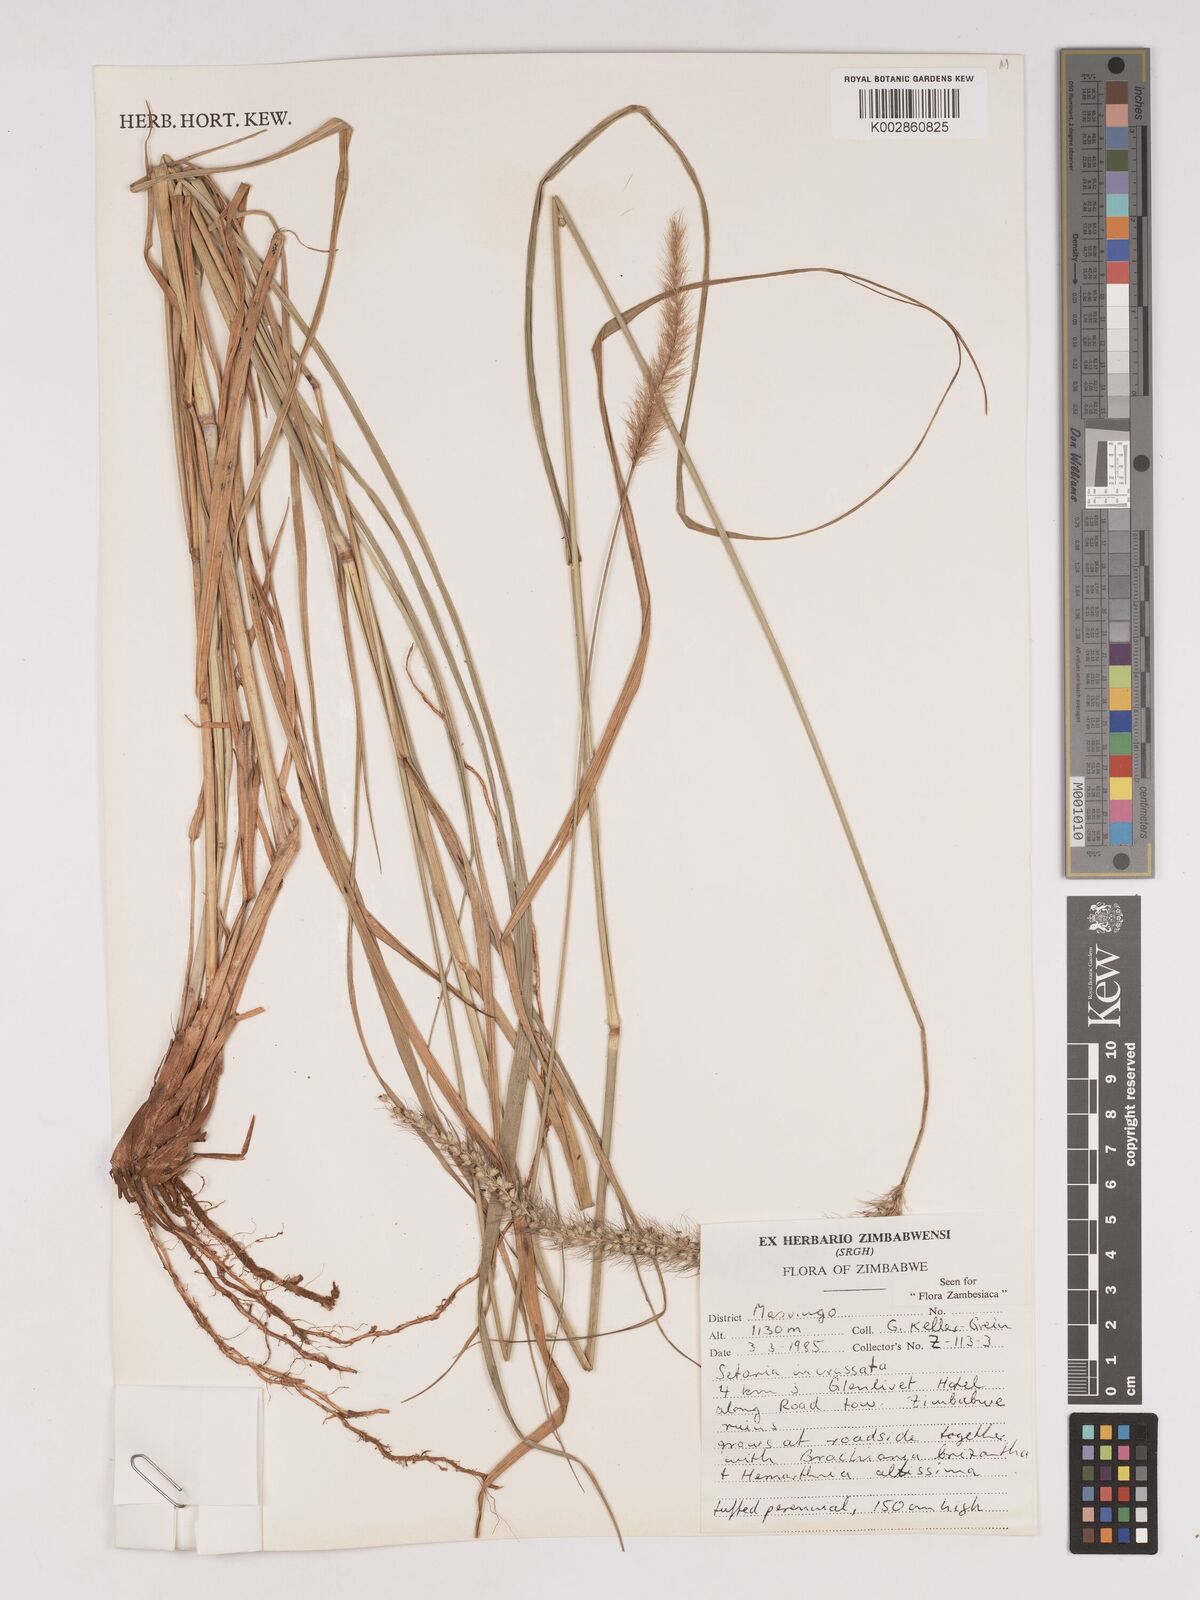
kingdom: Plantae
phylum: Tracheophyta
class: Liliopsida
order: Poales
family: Poaceae
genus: Setaria
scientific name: Setaria incrassata
